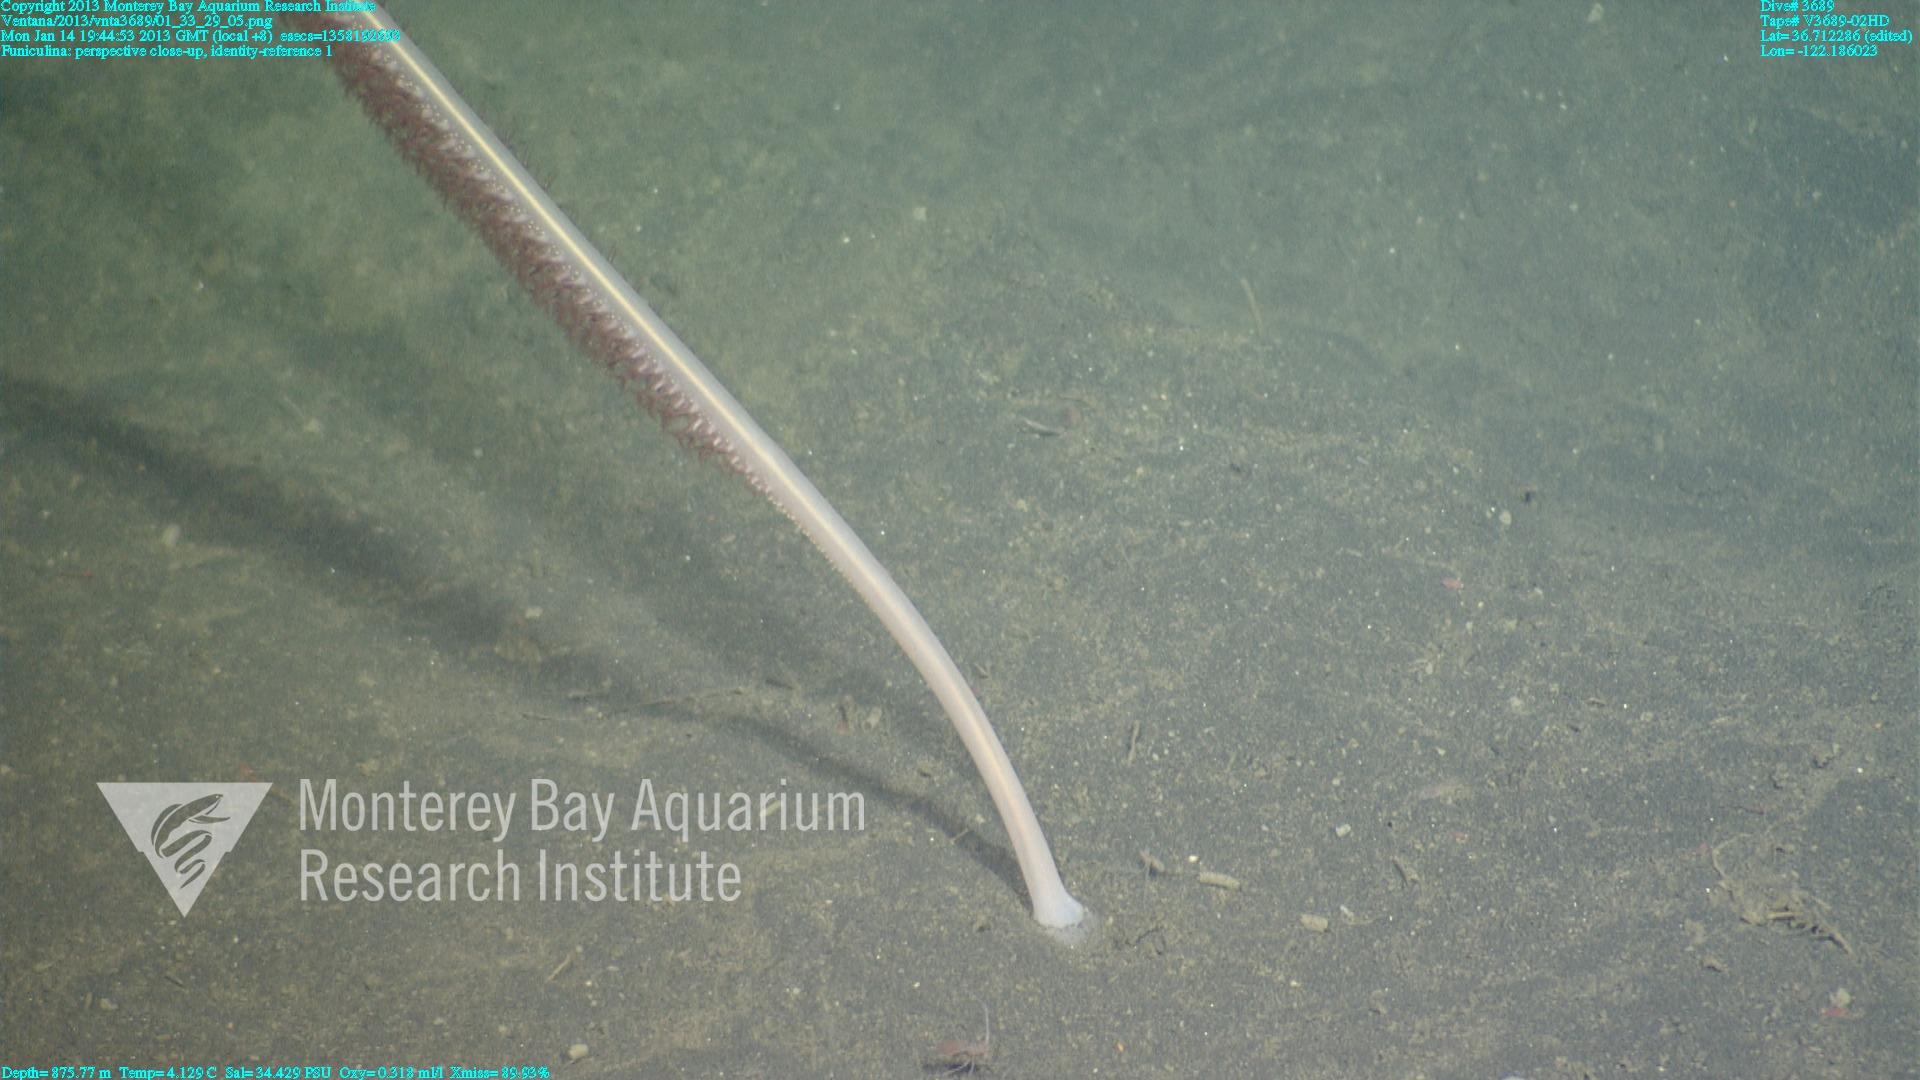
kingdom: Animalia
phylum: Cnidaria
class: Anthozoa
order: Scleralcyonacea
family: Funiculinidae
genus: Funiculina
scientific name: Funiculina
